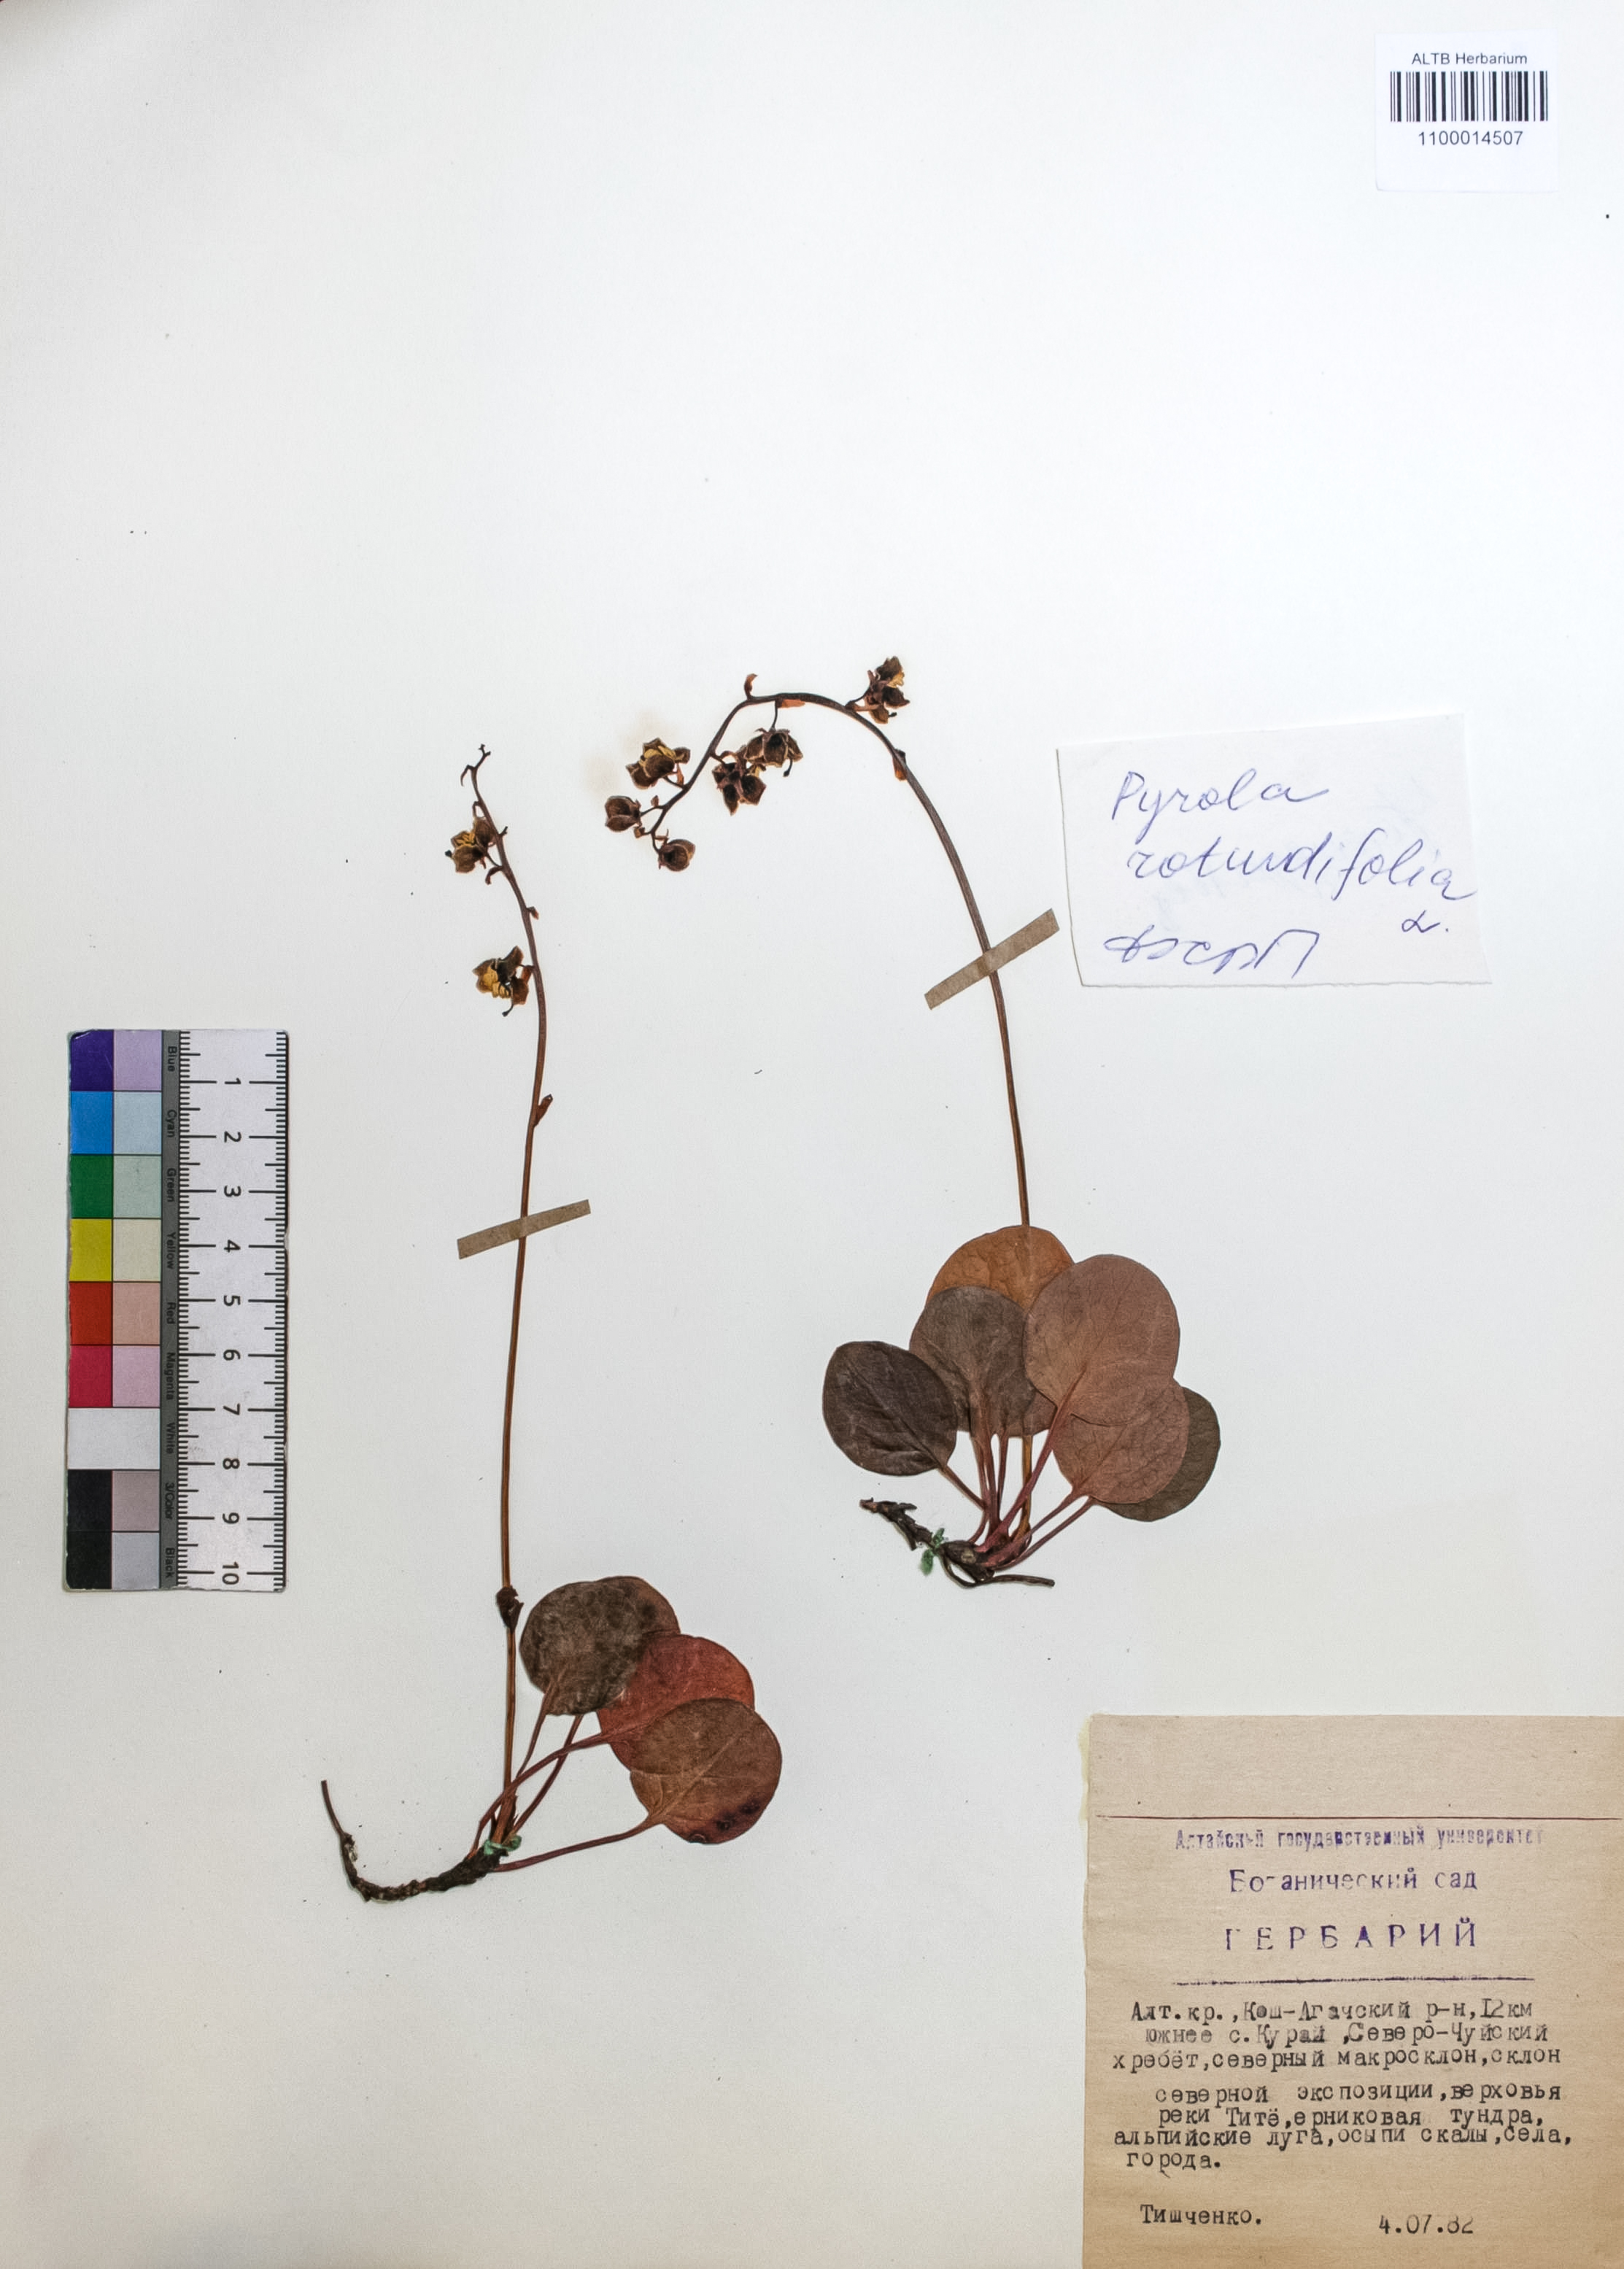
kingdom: Plantae
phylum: Tracheophyta
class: Magnoliopsida
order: Ericales
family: Ericaceae
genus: Pyrola
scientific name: Pyrola rotundifolia
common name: Round-leaved wintergreen
